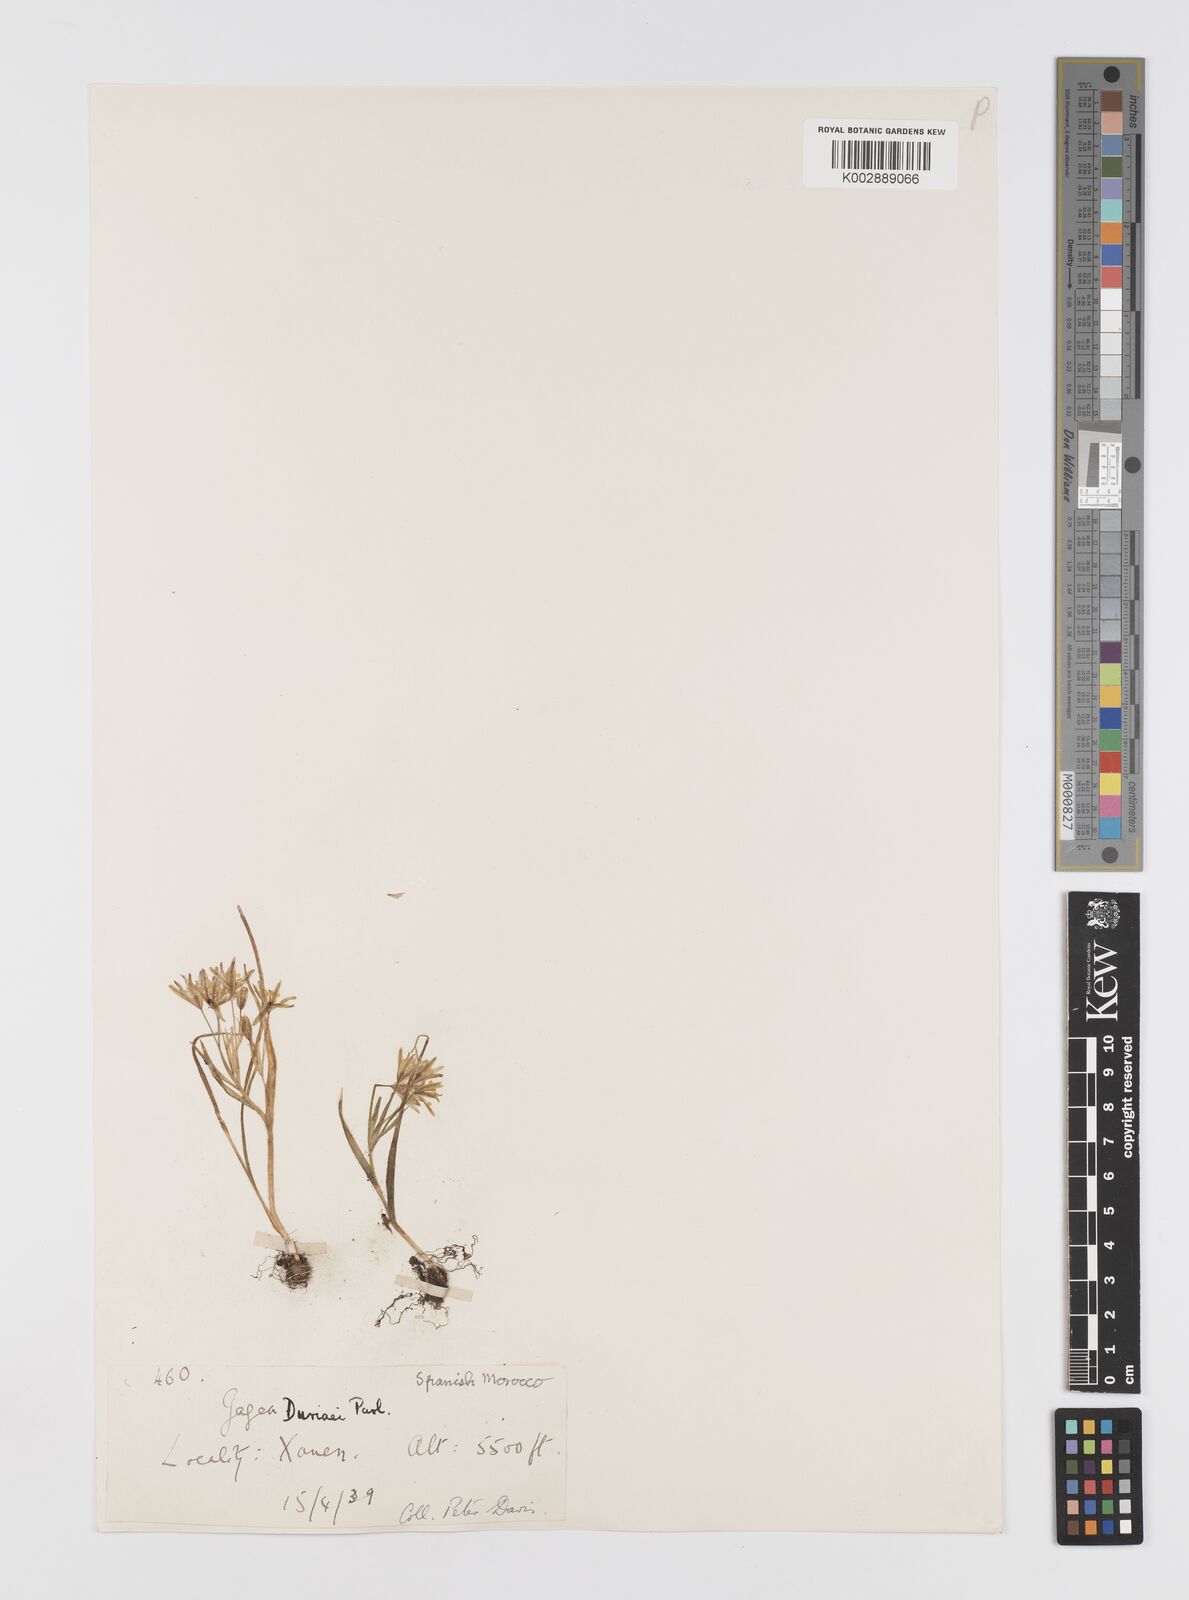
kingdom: Plantae
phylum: Tracheophyta
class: Liliopsida
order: Liliales
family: Liliaceae
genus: Gagea
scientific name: Gagea fibrosa
